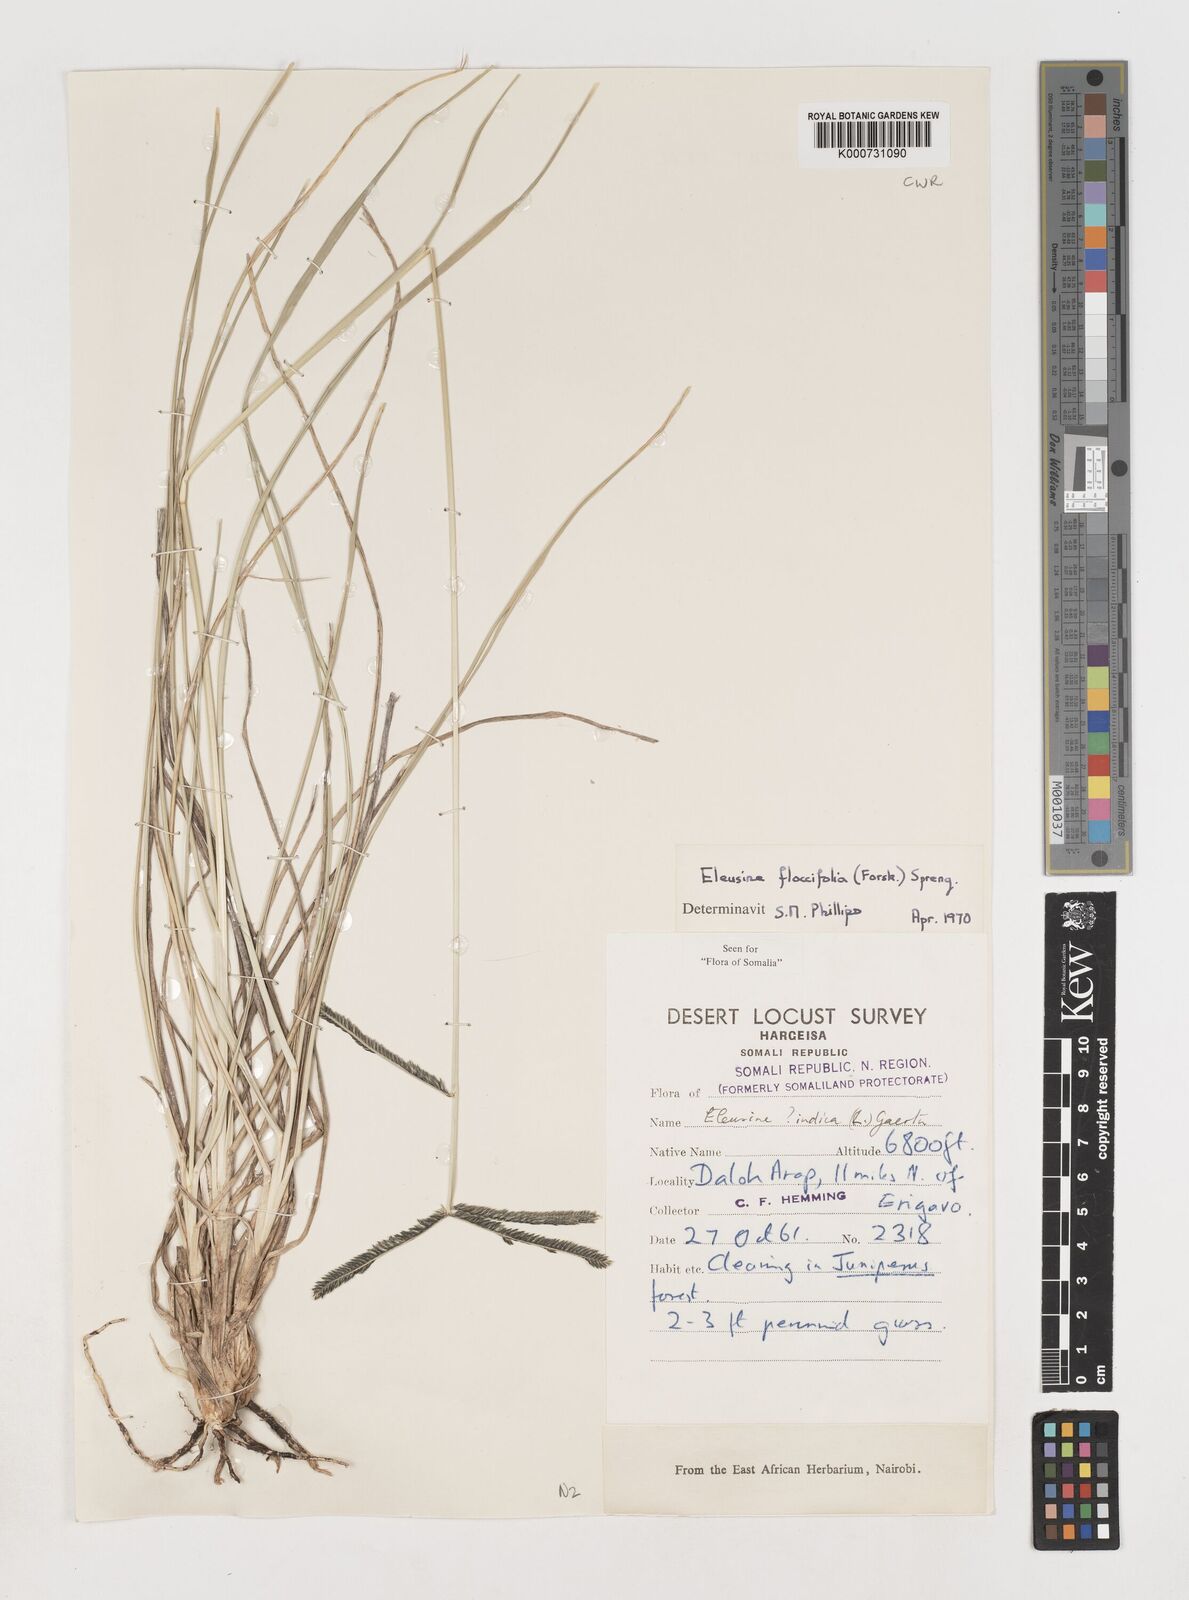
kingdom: Plantae
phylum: Tracheophyta
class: Liliopsida
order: Poales
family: Poaceae
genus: Eleusine
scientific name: Eleusine floccifolia
